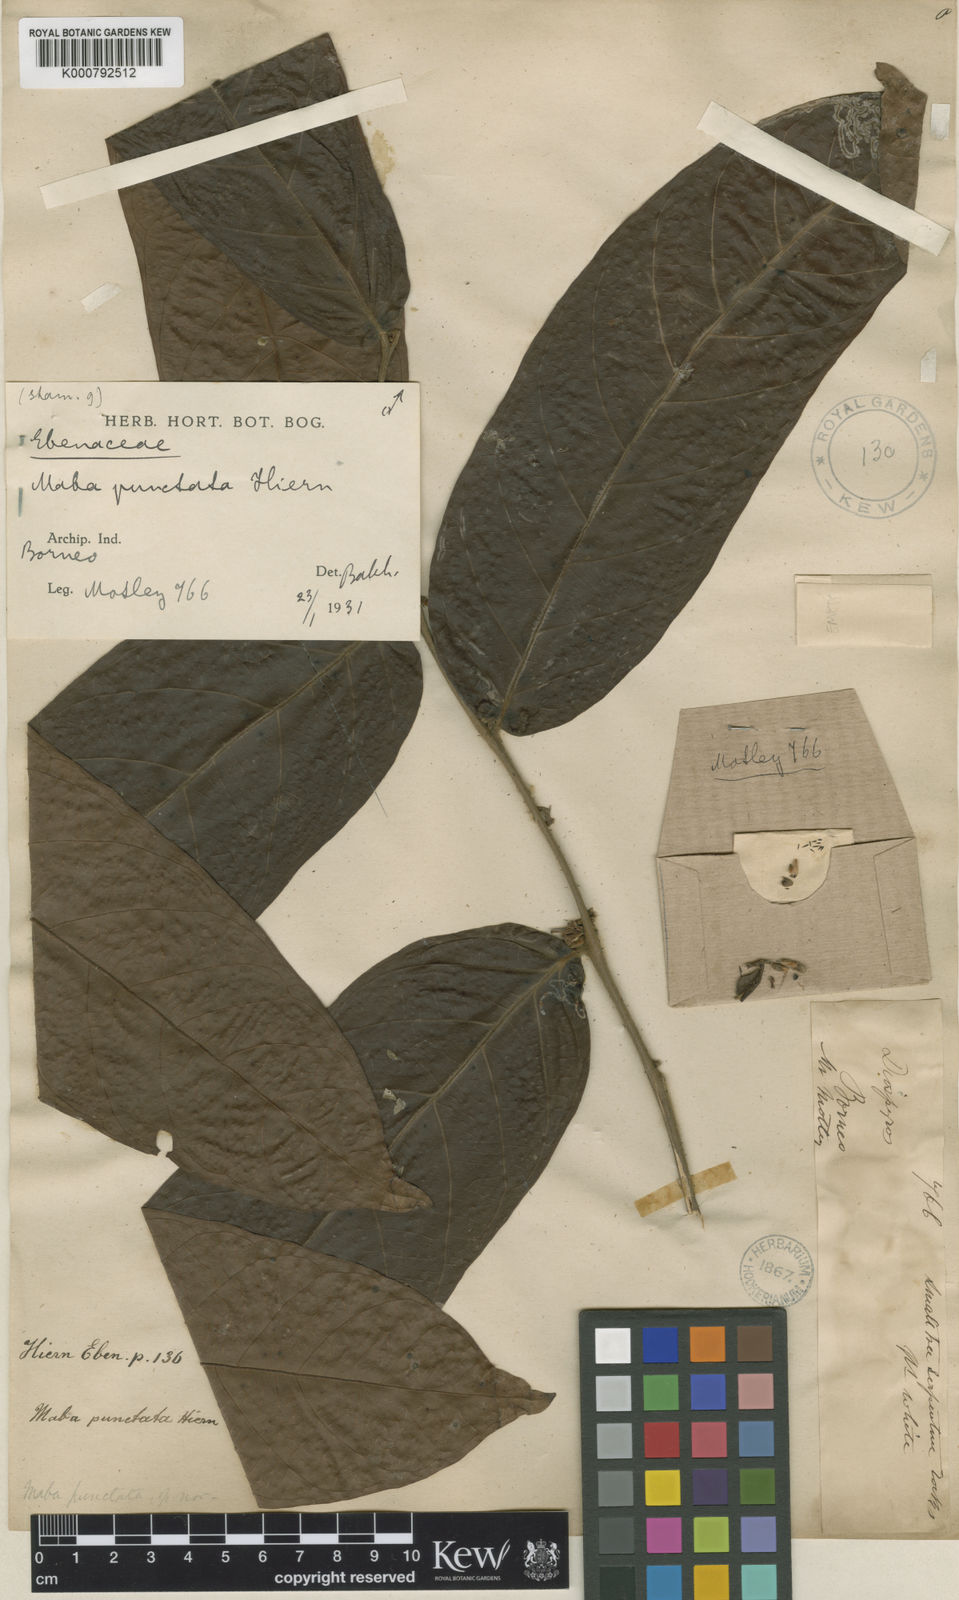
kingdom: Plantae
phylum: Tracheophyta
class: Magnoliopsida
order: Ericales
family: Ebenaceae
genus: Diospyros
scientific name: Diospyros confertiflora
